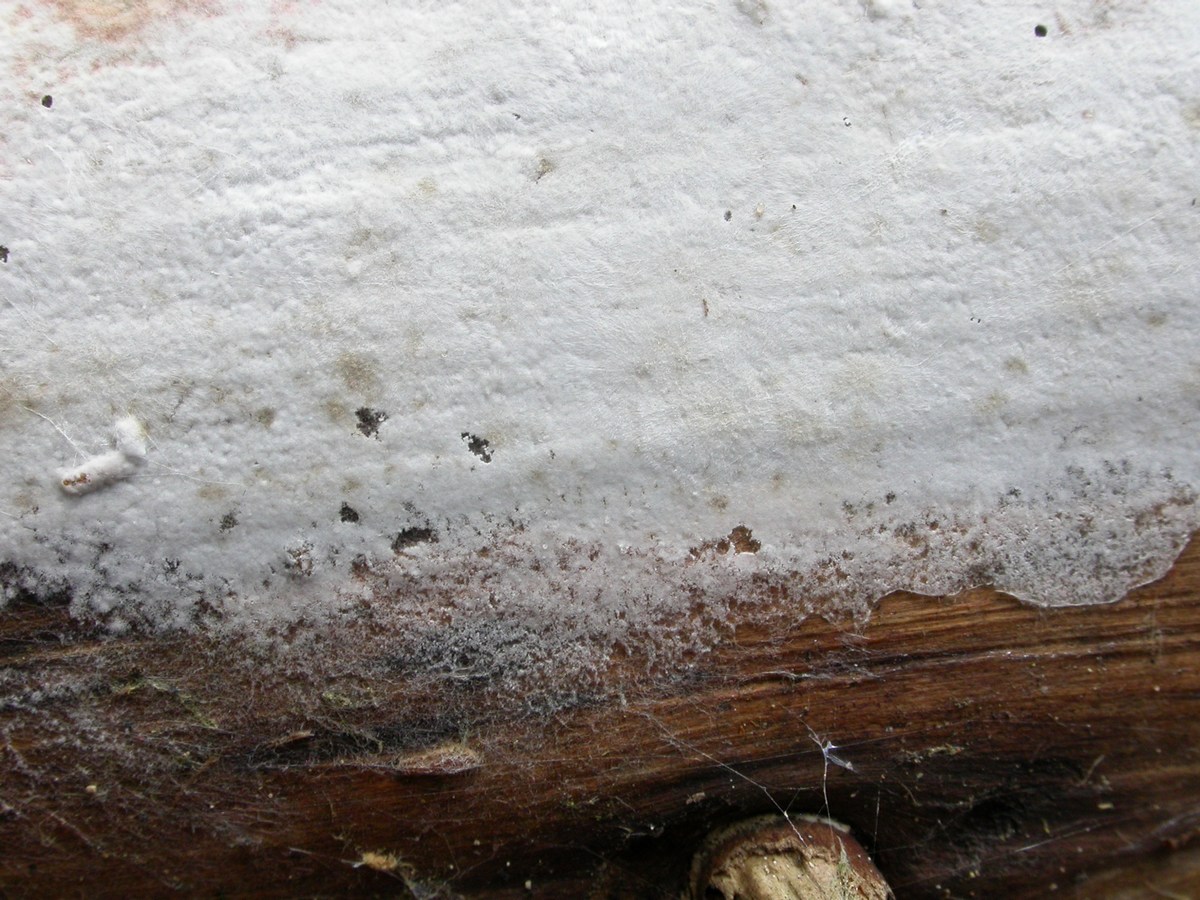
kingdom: Fungi
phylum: Basidiomycota
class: Agaricomycetes
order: Atheliales
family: Atheliaceae
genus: Athelia
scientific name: Athelia epiphylla
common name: almindelig barkhinde
